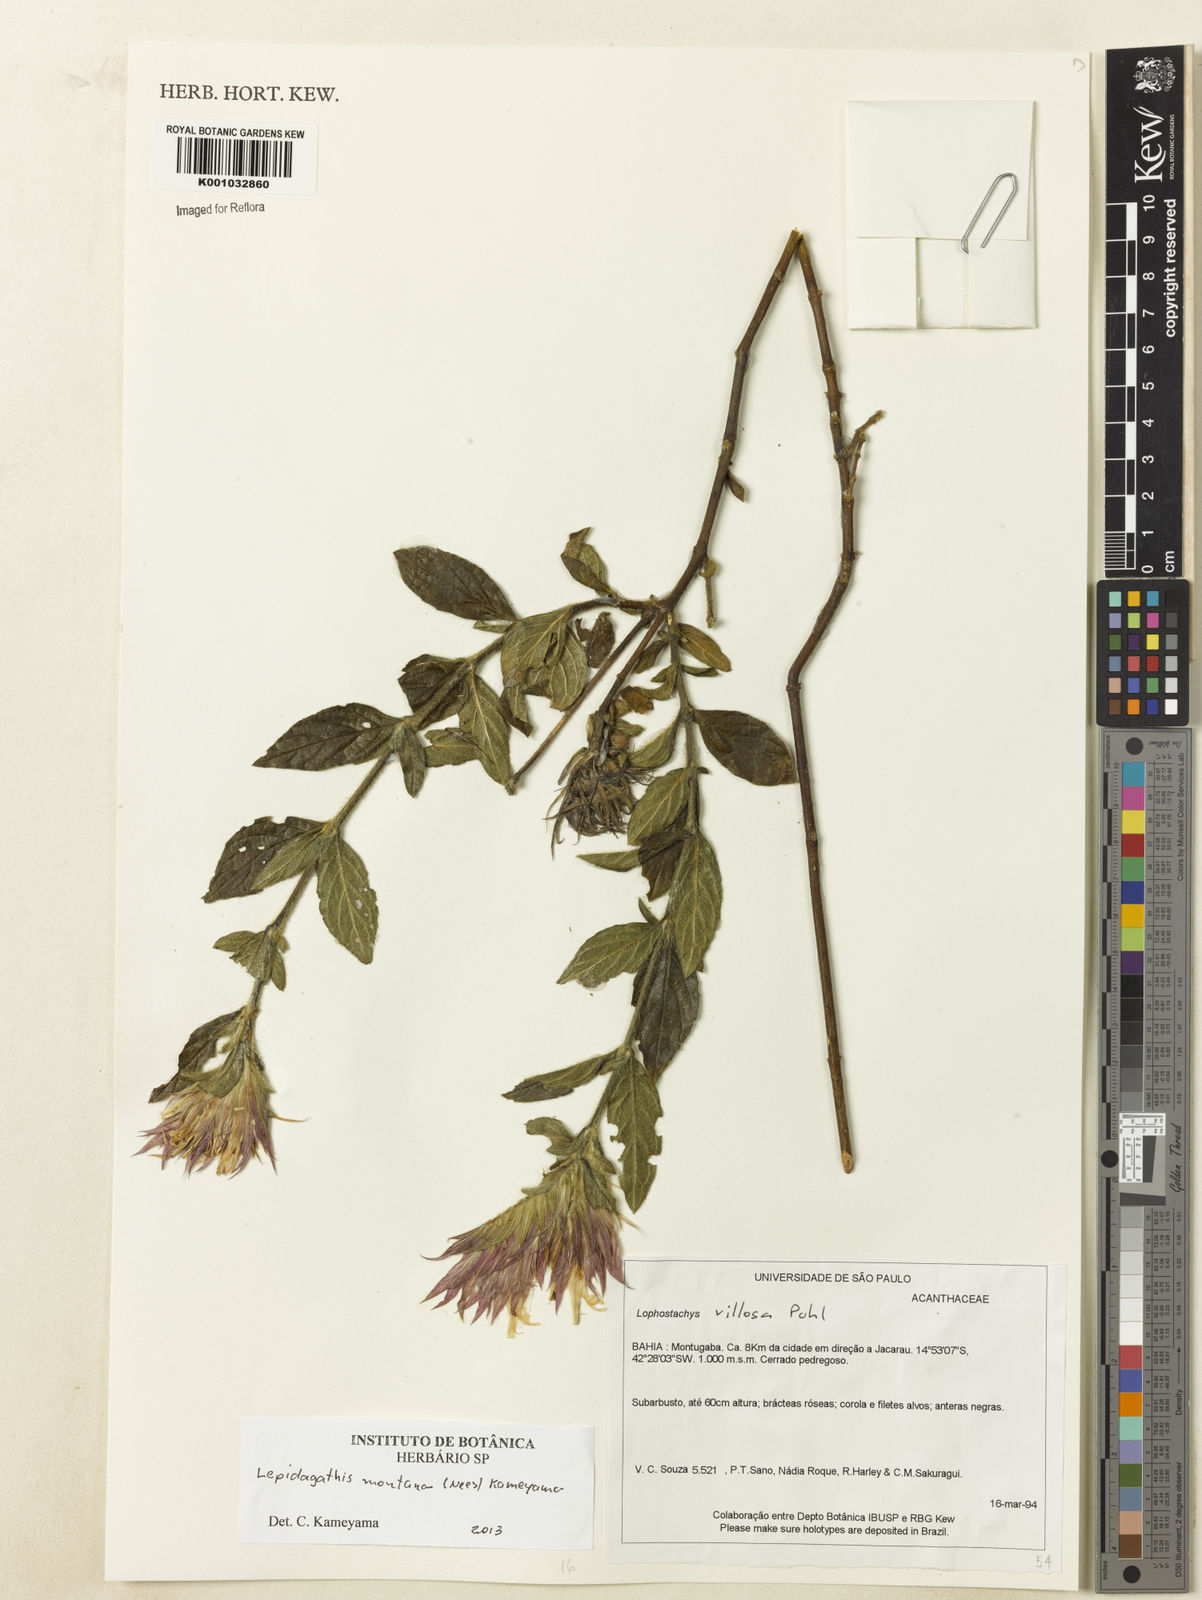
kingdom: Plantae
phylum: Tracheophyta
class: Magnoliopsida
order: Lamiales
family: Acanthaceae
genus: Lepidagathis
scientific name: Lepidagathis montana
